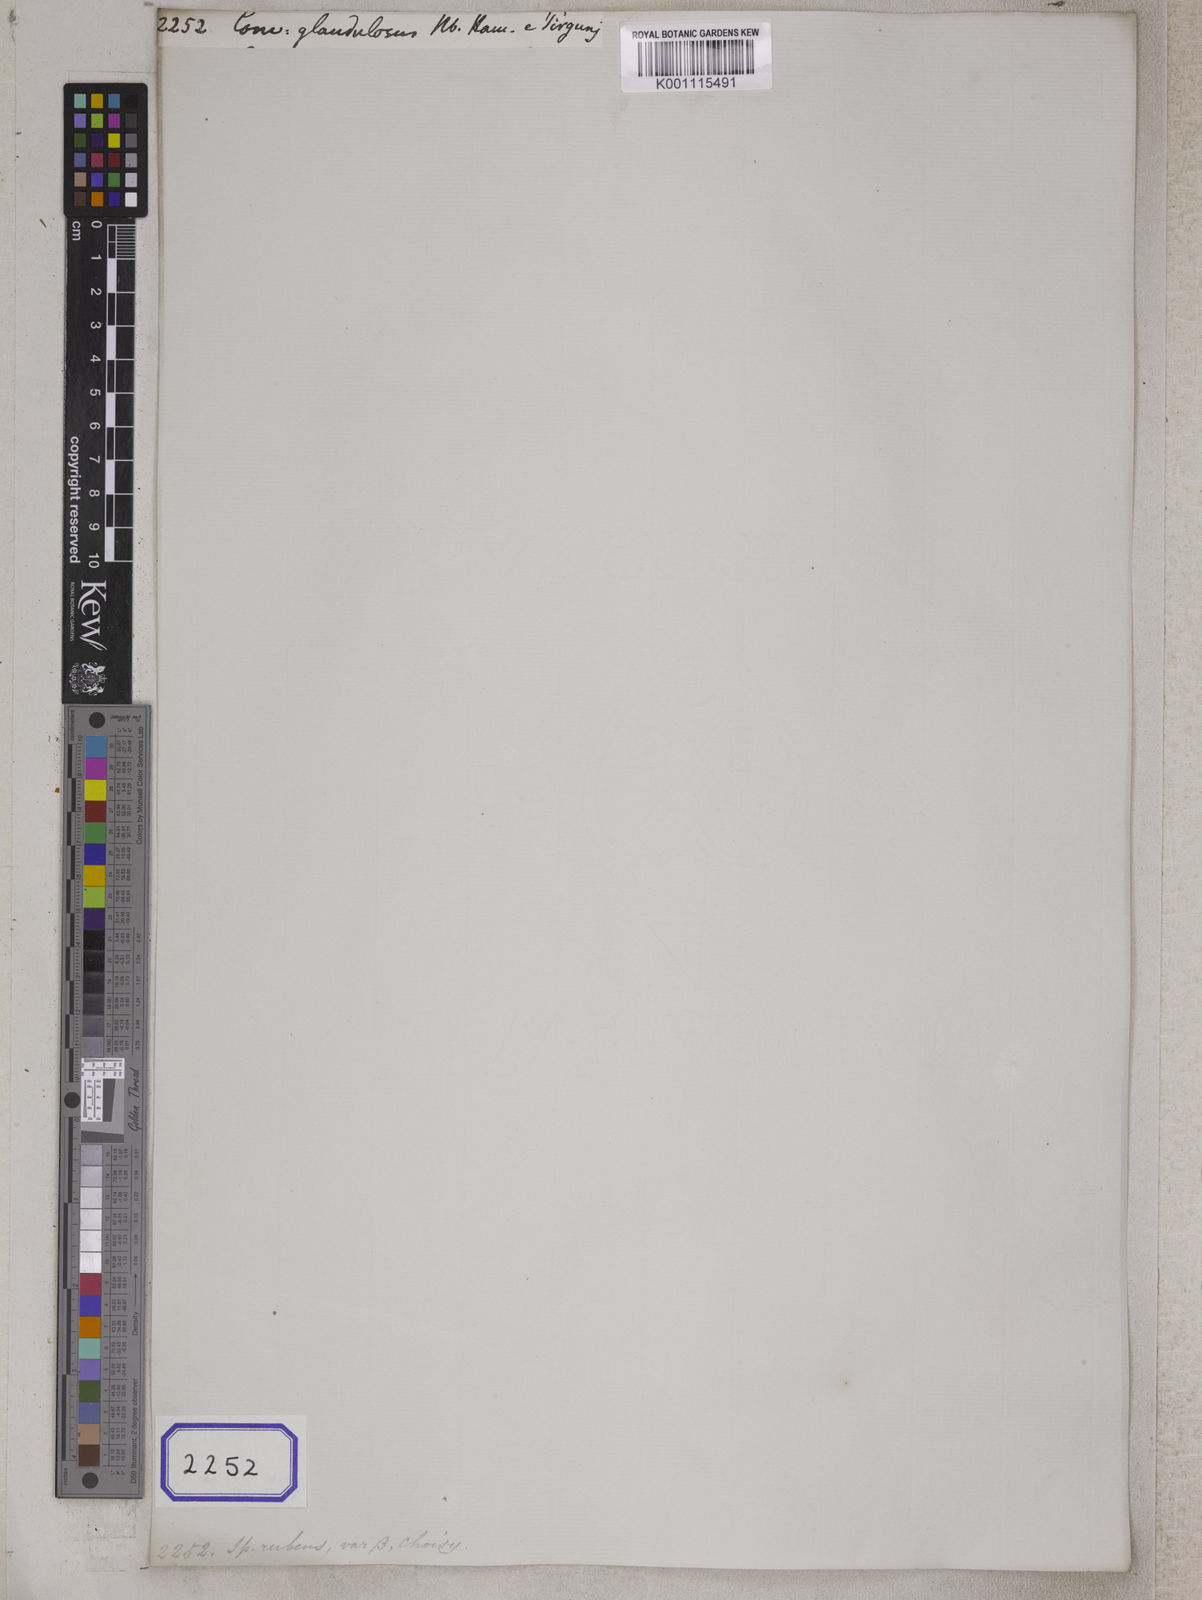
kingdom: Plantae
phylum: Tracheophyta
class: Magnoliopsida
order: Solanales
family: Convolvulaceae
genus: Convolvulus
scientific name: Convolvulus
